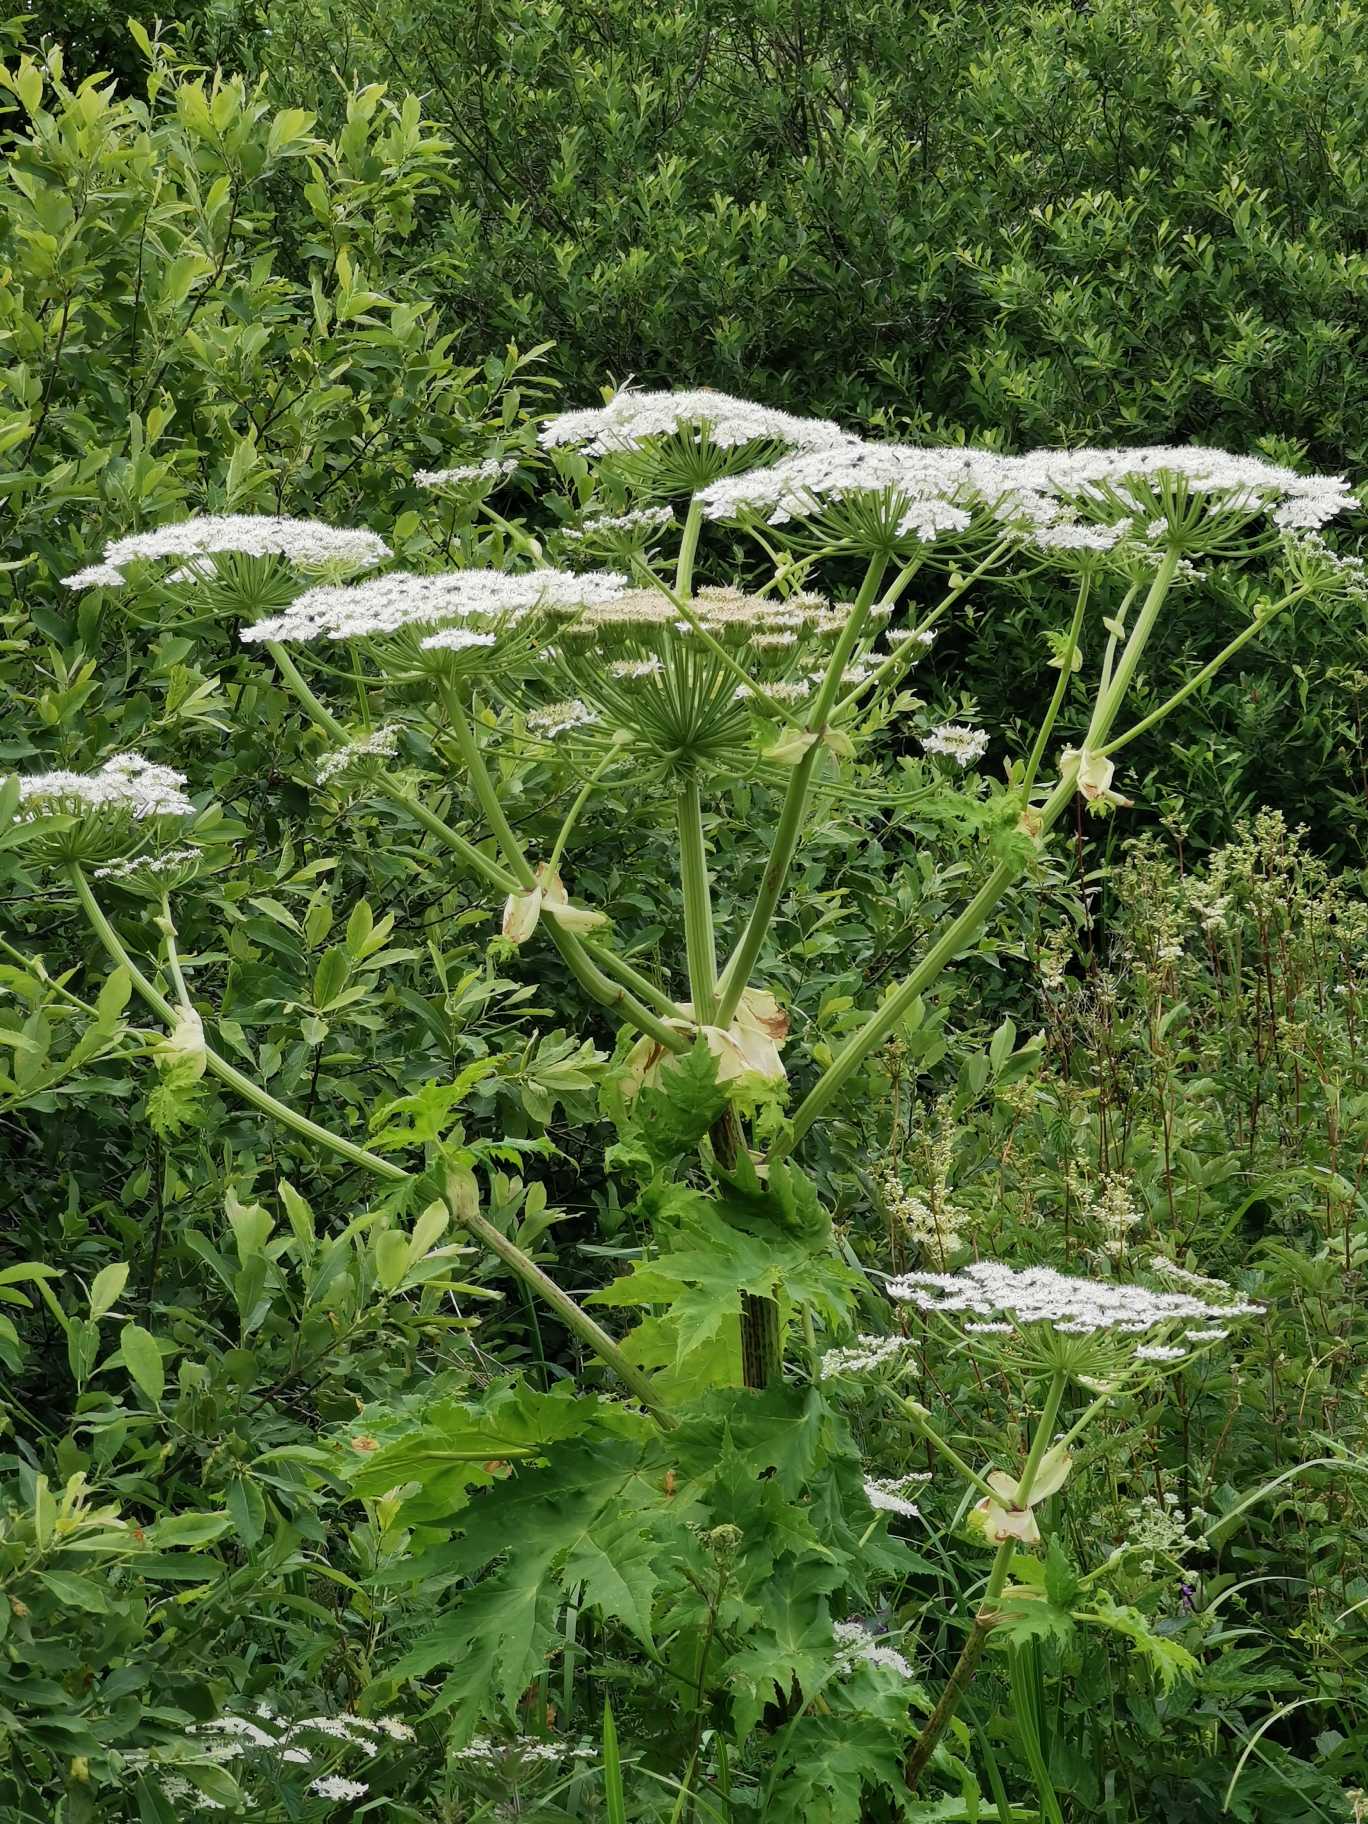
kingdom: Plantae
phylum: Tracheophyta
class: Magnoliopsida
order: Apiales
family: Apiaceae
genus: Heracleum
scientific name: Heracleum mantegazzianum
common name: Kæmpe-bjørneklo
